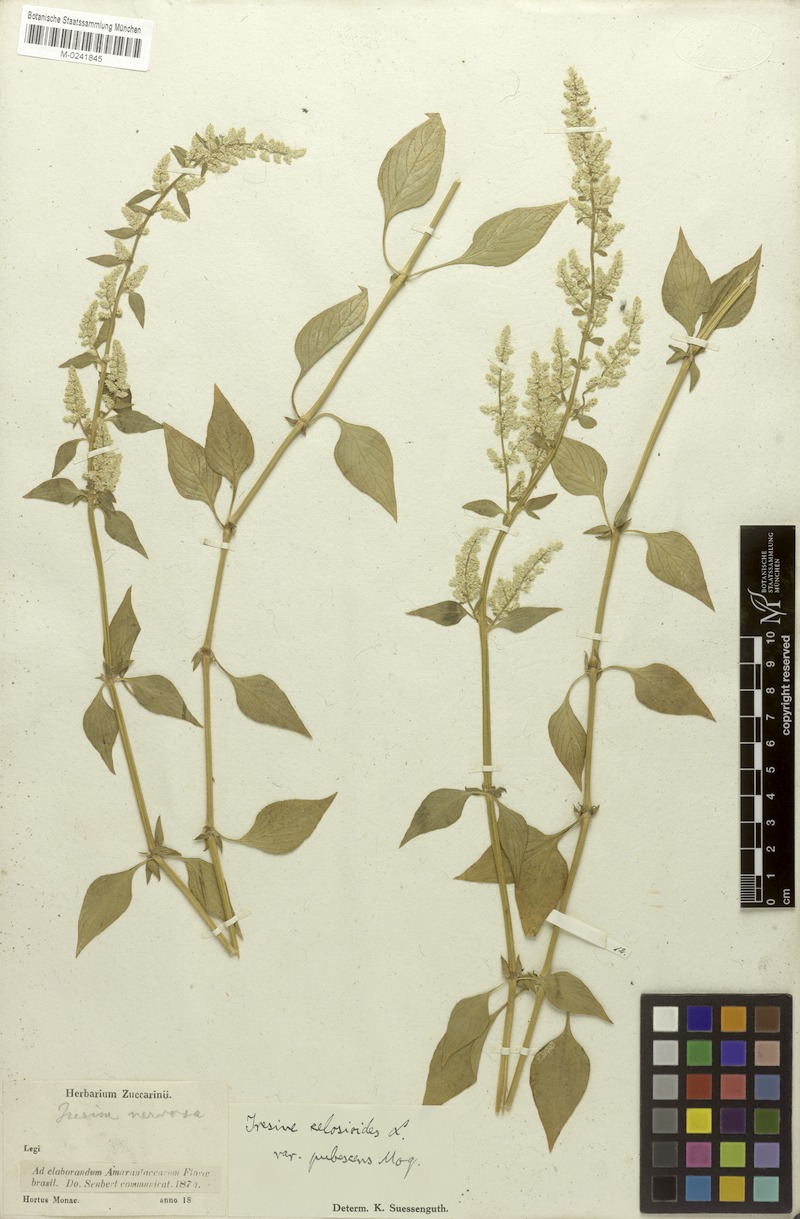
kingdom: Plantae
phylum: Tracheophyta
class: Magnoliopsida
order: Caryophyllales
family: Amaranthaceae
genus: Iresine
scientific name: Iresine diffusa
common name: Juba's-bush
